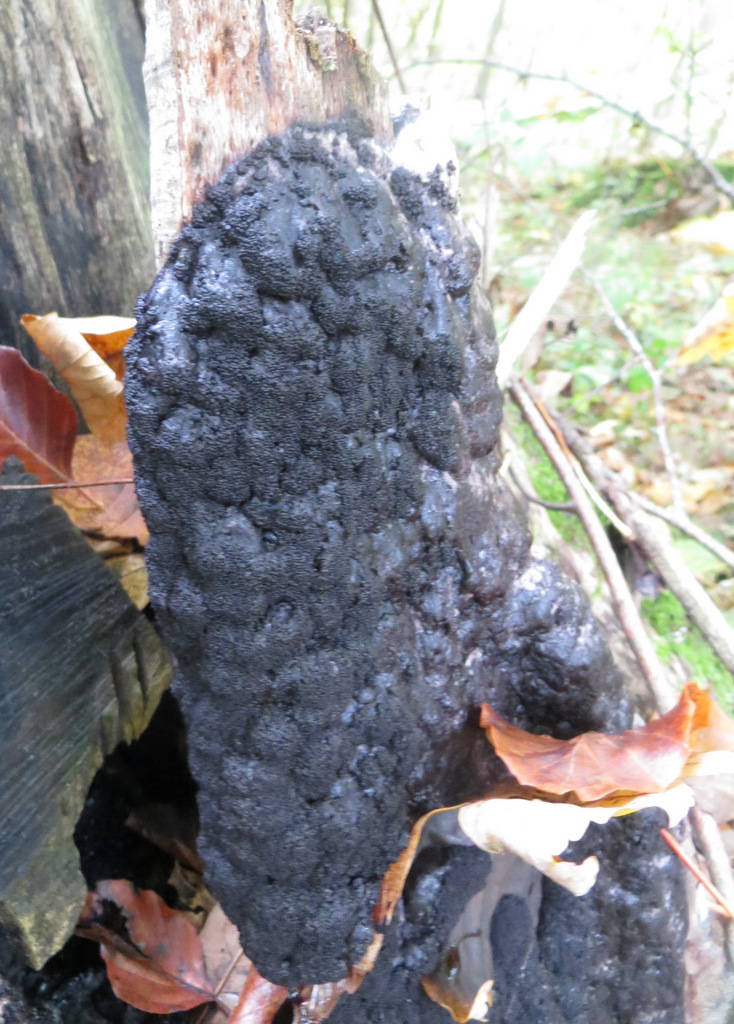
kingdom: Protozoa
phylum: Mycetozoa
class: Myxomycetes
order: Stemonitidales
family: Stemonitidaceae
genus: Brefeldia
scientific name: Brefeldia maxima
